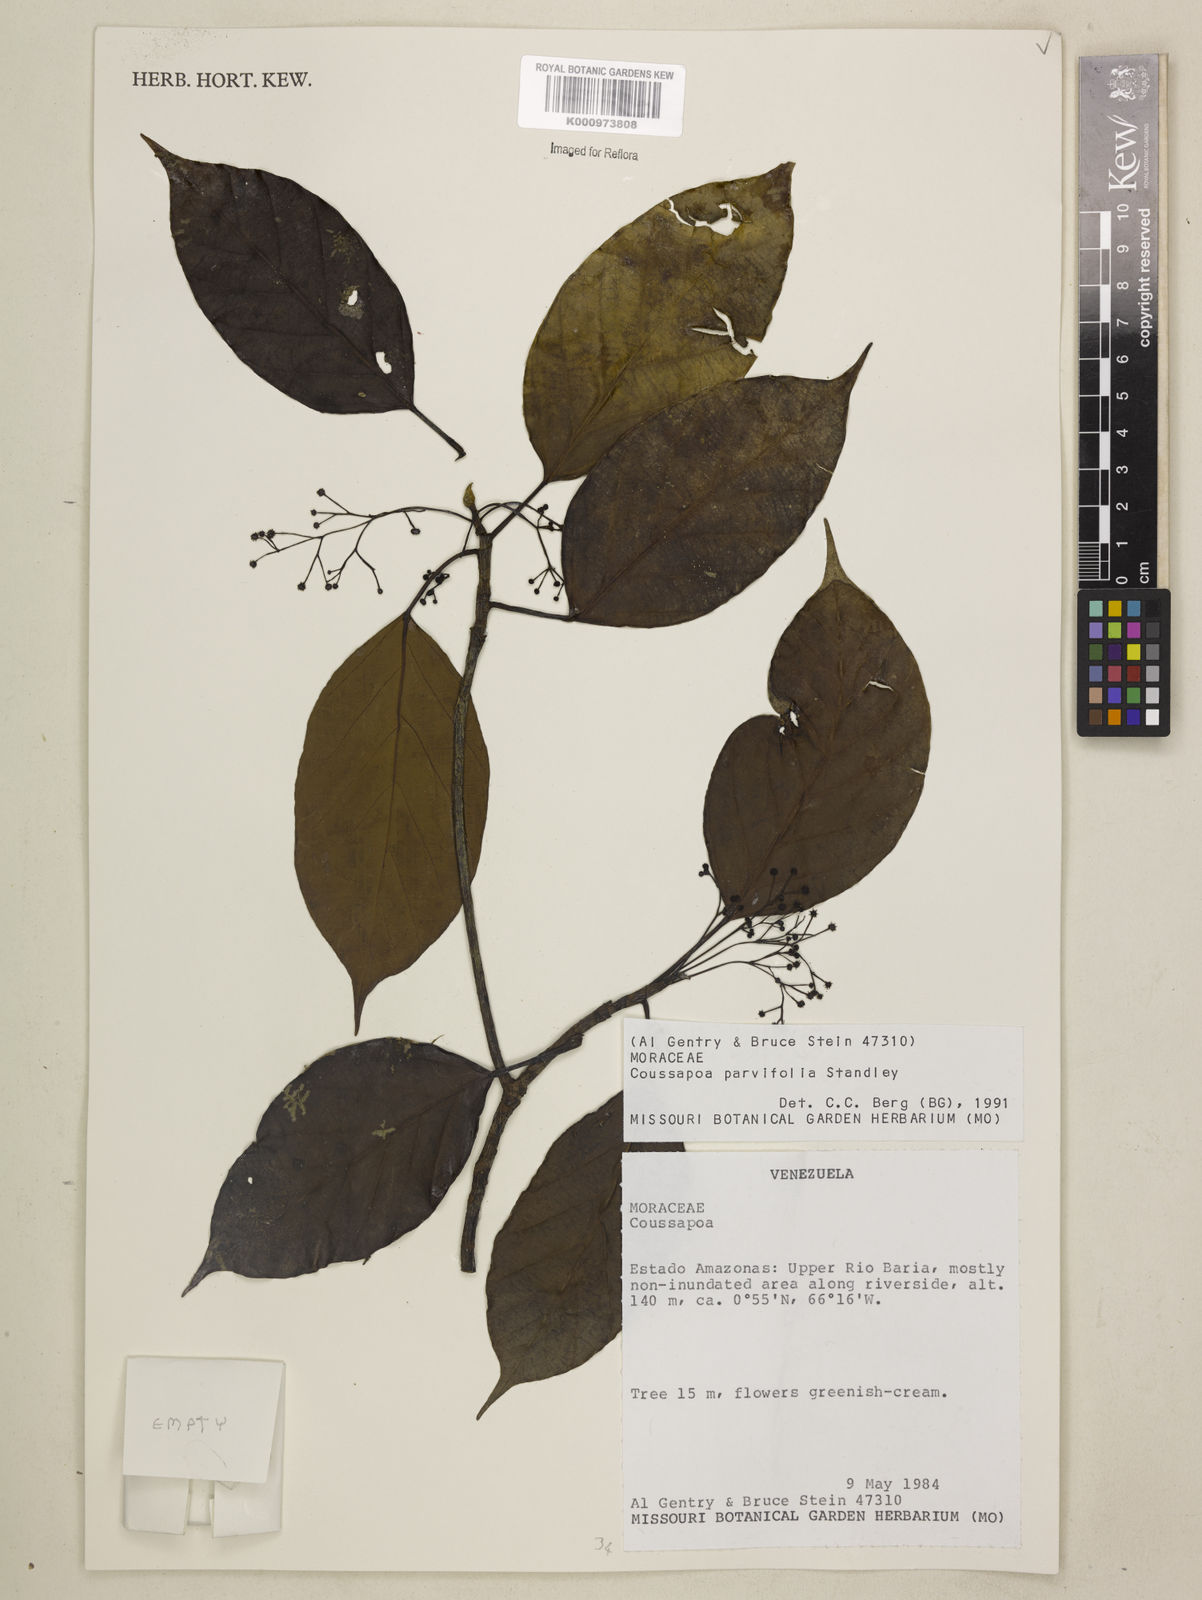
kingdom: Plantae
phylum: Tracheophyta
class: Magnoliopsida
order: Rosales
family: Urticaceae
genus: Coussapoa
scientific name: Coussapoa parvifolia
